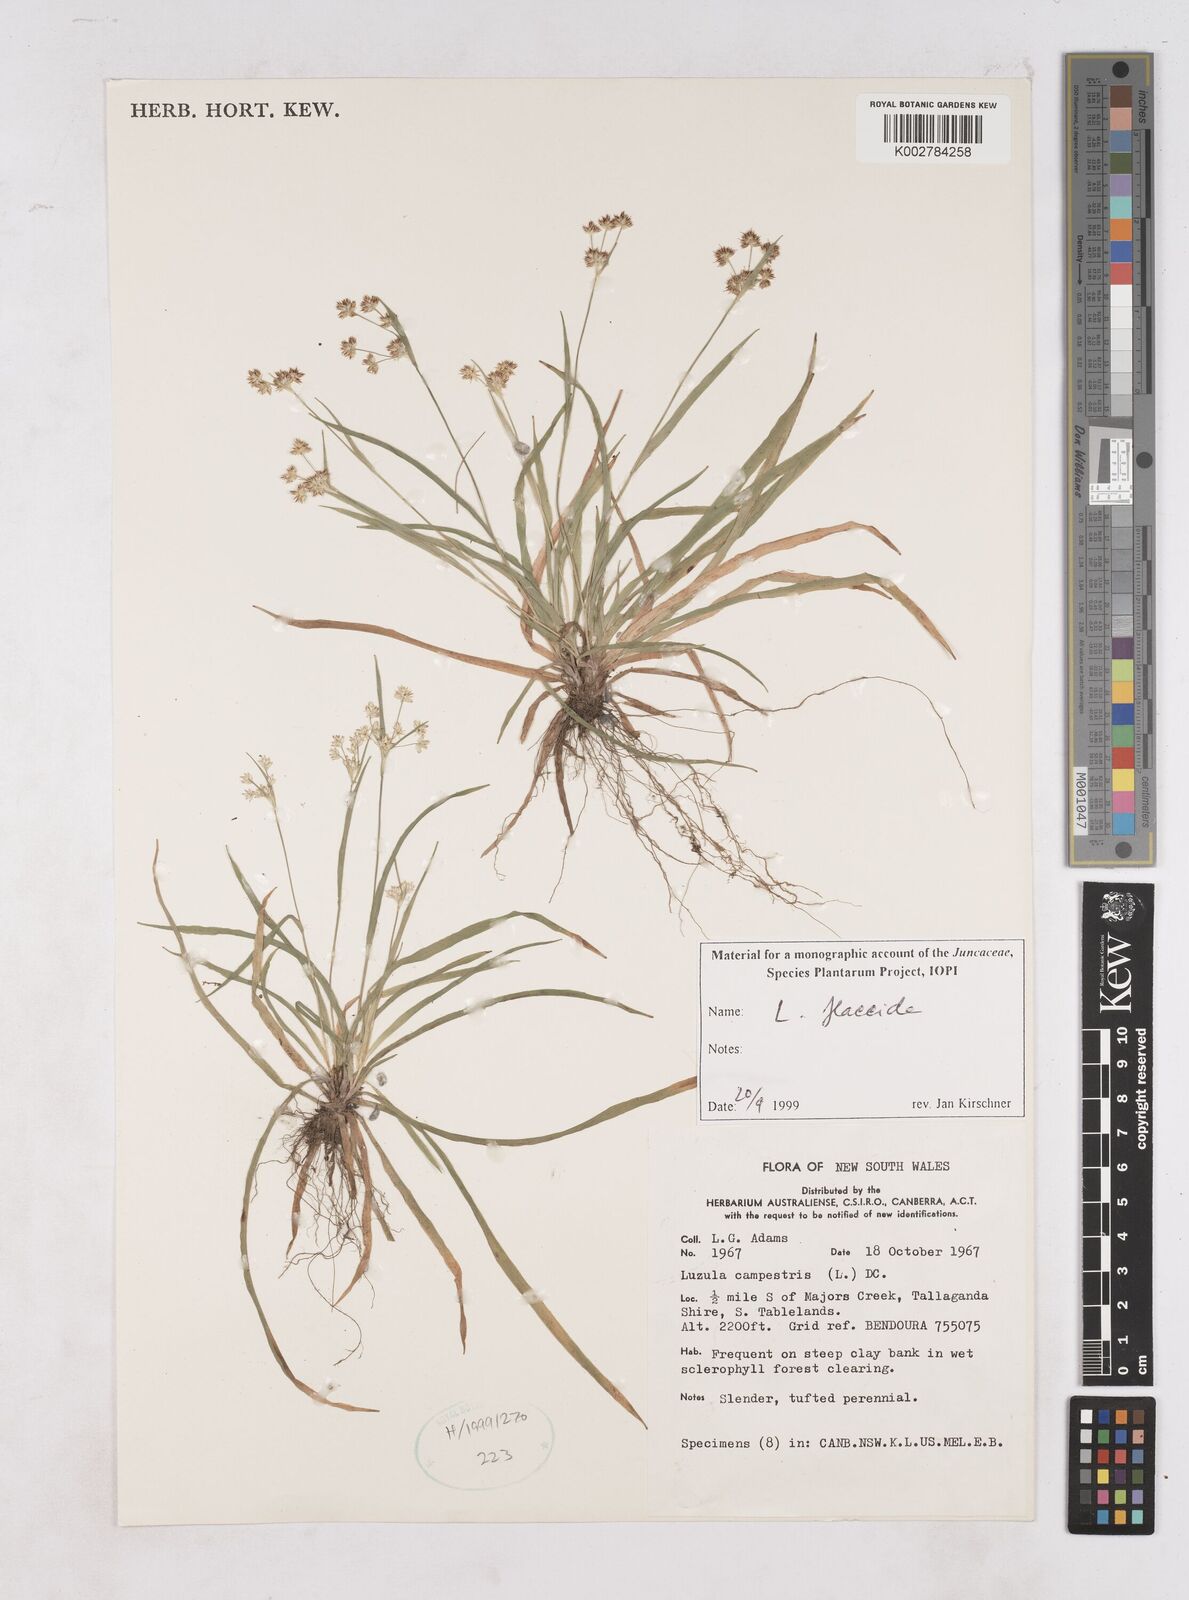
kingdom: Plantae
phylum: Tracheophyta
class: Liliopsida
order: Poales
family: Juncaceae
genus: Luzula
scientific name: Luzula flaccida
